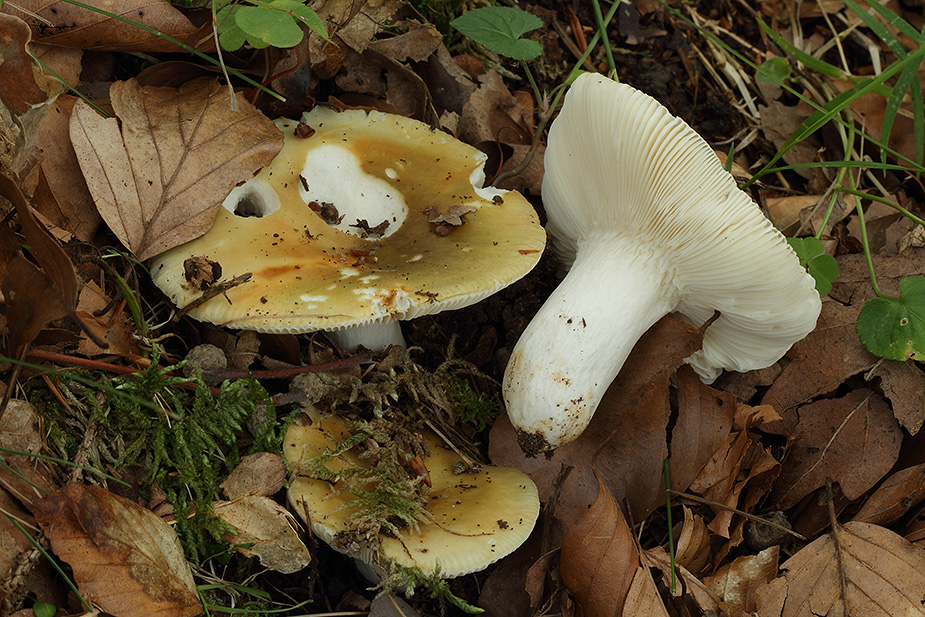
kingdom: Fungi
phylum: Basidiomycota
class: Agaricomycetes
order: Russulales
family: Russulaceae
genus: Russula
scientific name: Russula heterophylla
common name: gaffelbladet skørhat
